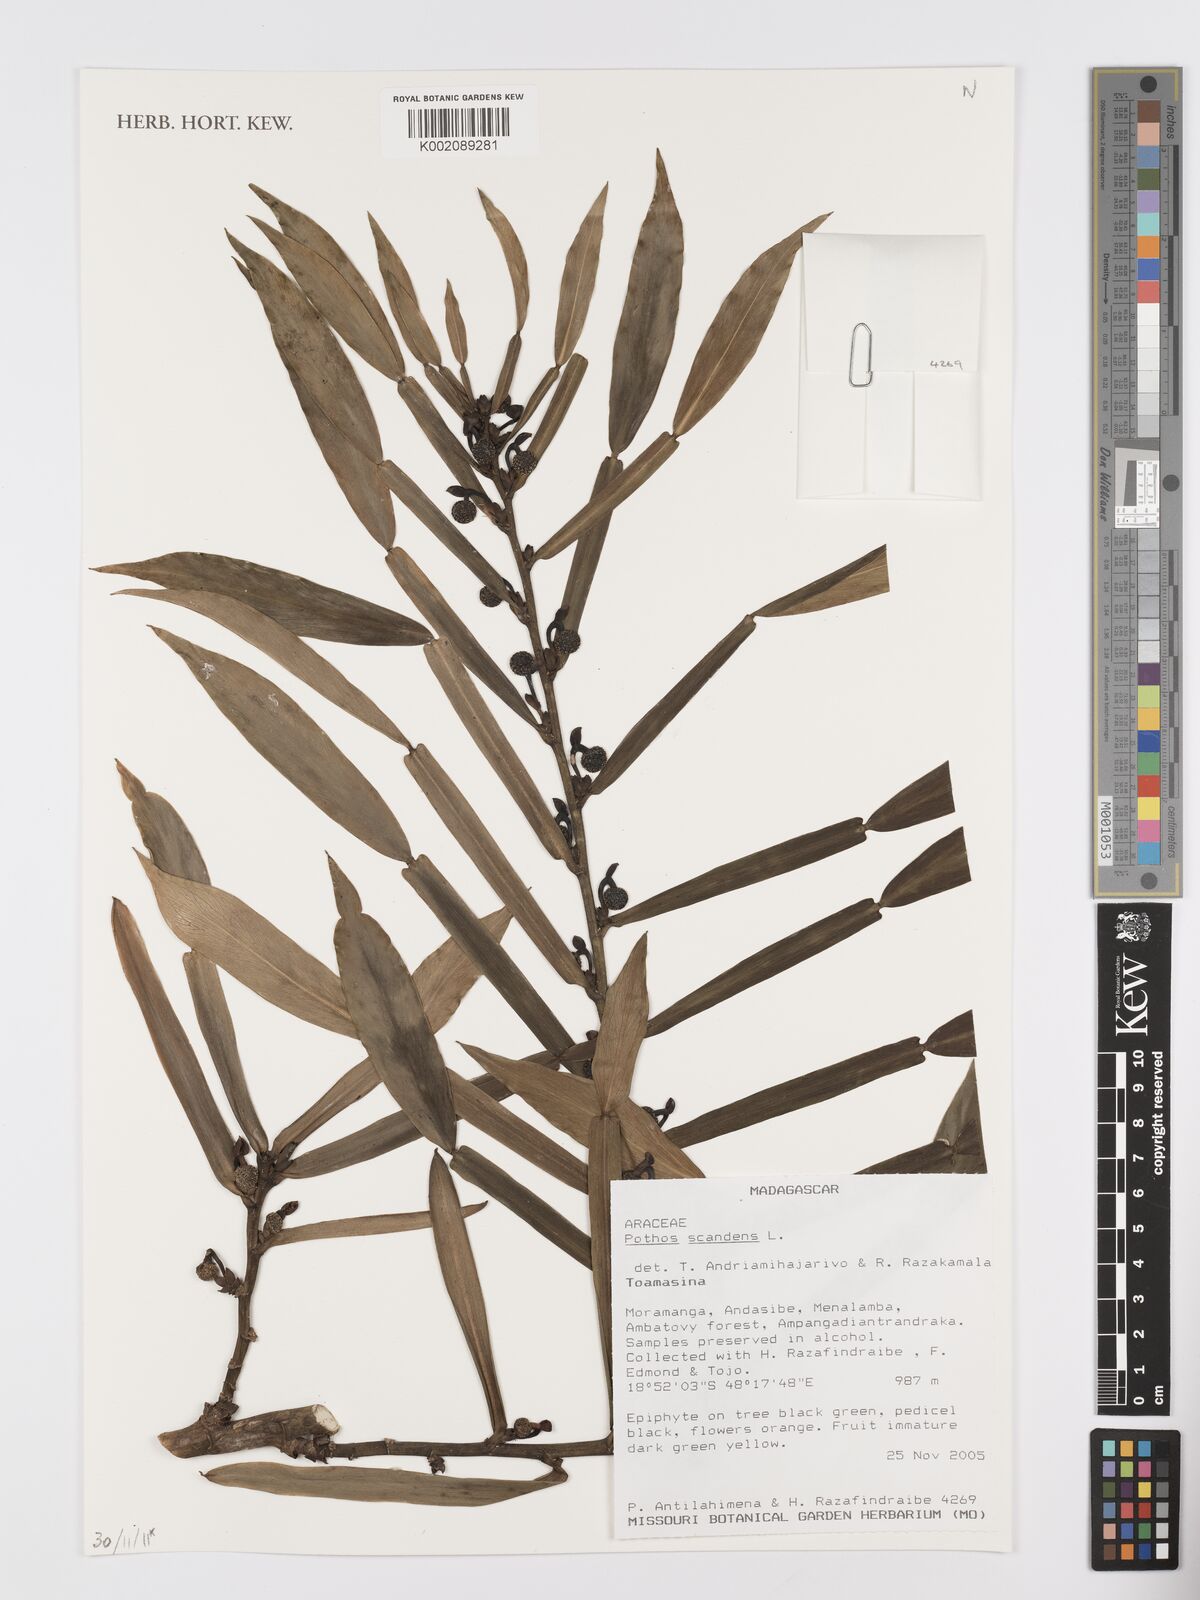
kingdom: Plantae
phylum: Tracheophyta
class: Liliopsida
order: Alismatales
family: Araceae
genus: Pothos
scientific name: Pothos scandens
